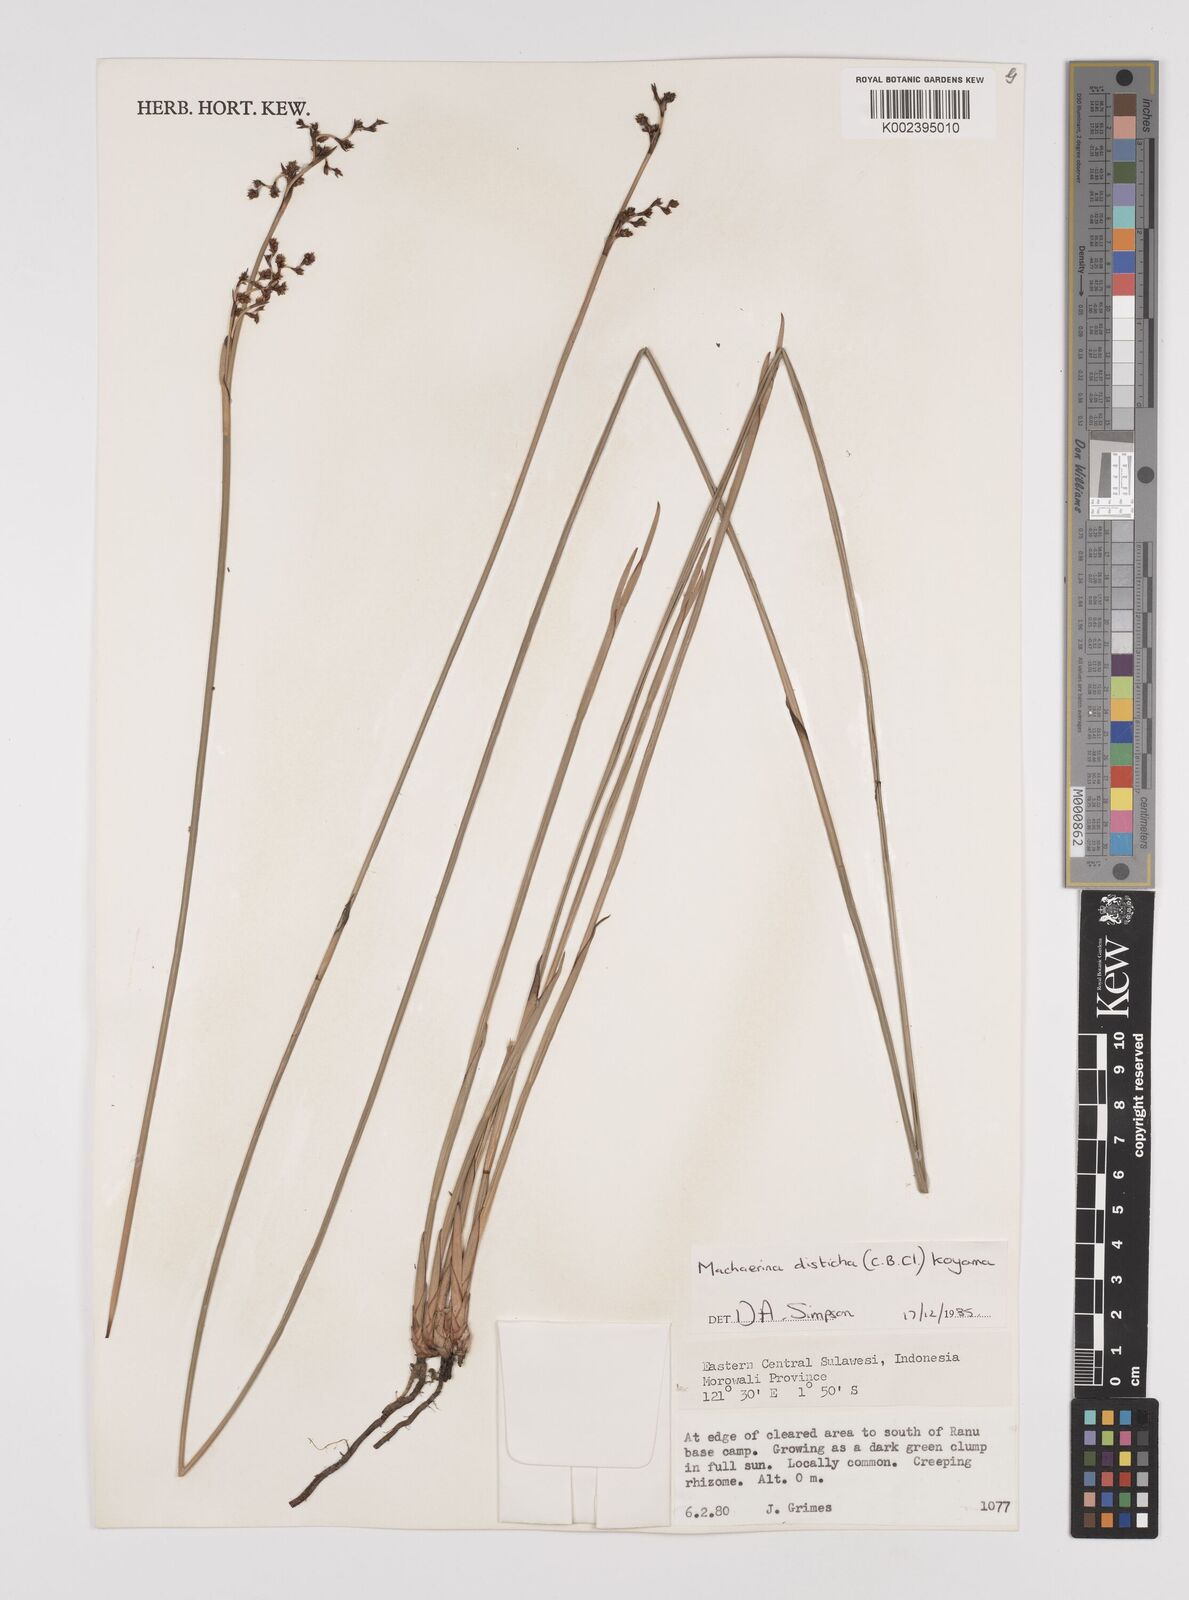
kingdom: Plantae
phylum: Tracheophyta
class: Liliopsida
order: Poales
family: Cyperaceae
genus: Machaerina
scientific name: Machaerina disticha
